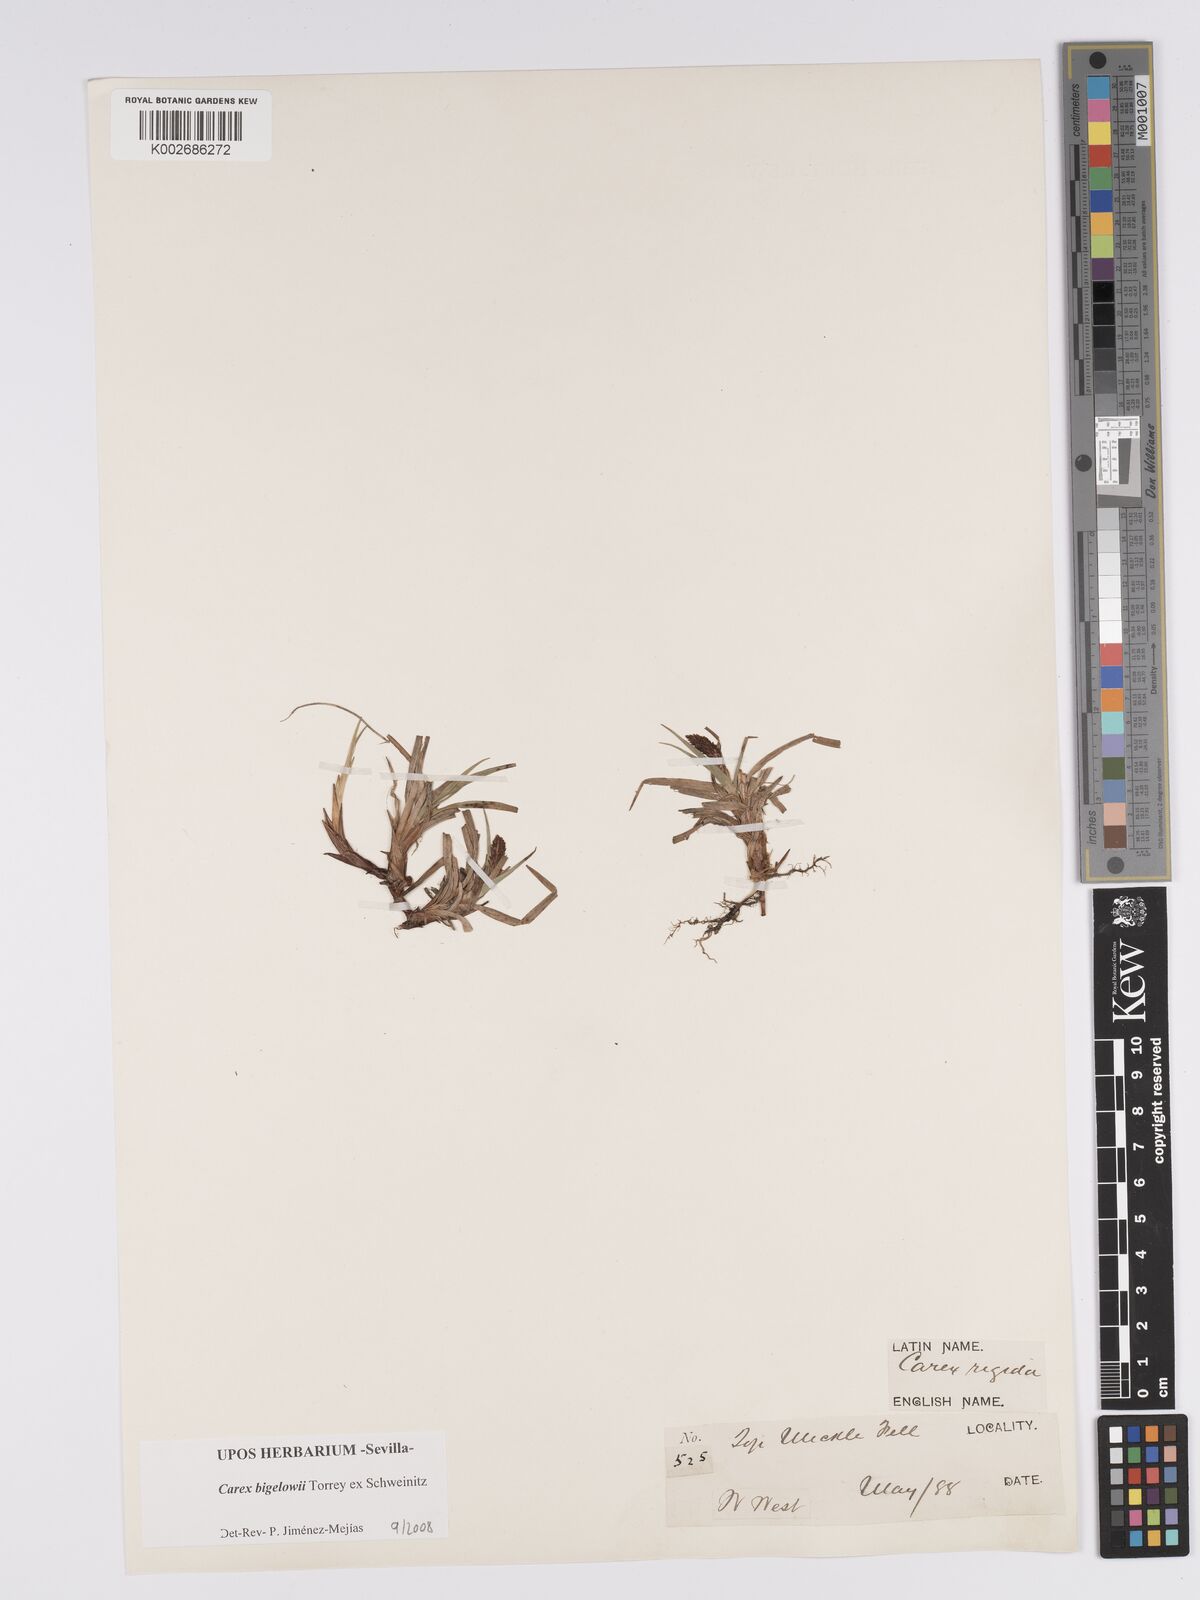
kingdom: Plantae
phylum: Tracheophyta
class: Liliopsida
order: Poales
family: Cyperaceae
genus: Carex
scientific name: Carex bigelowii
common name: Stiff sedge
